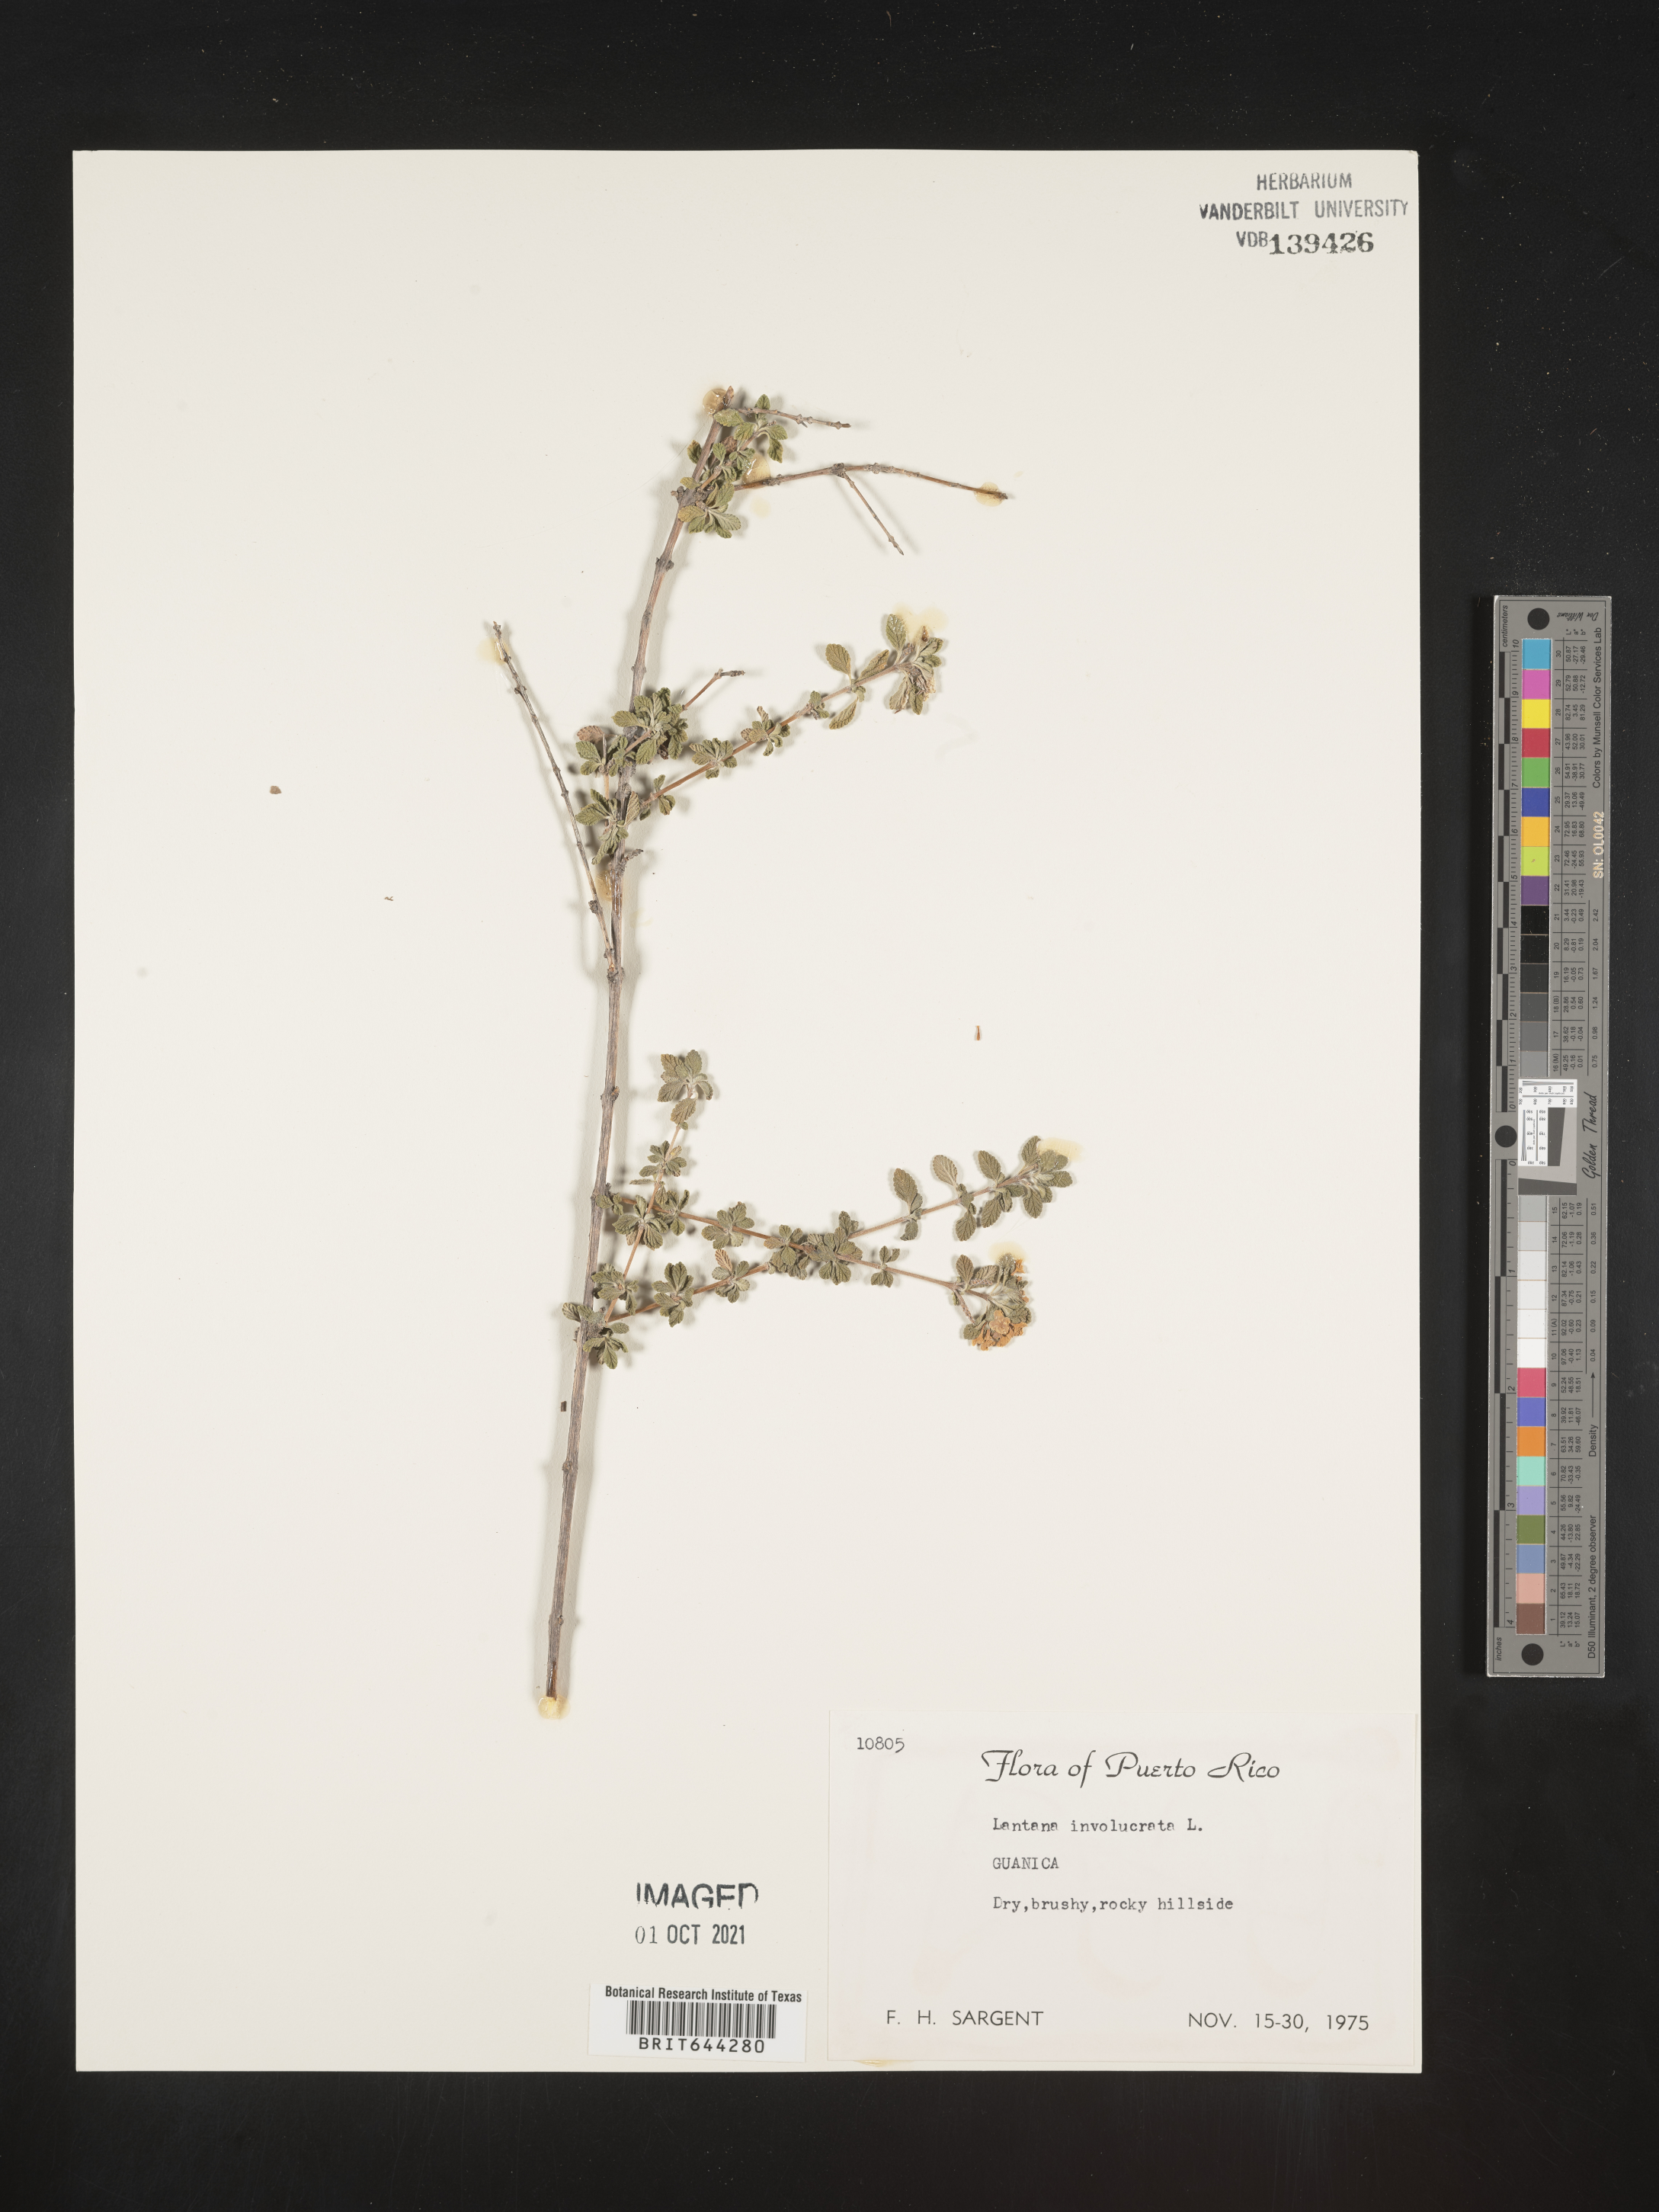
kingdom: Plantae
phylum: Tracheophyta
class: Magnoliopsida
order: Lamiales
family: Verbenaceae
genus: Lantana
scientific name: Lantana
